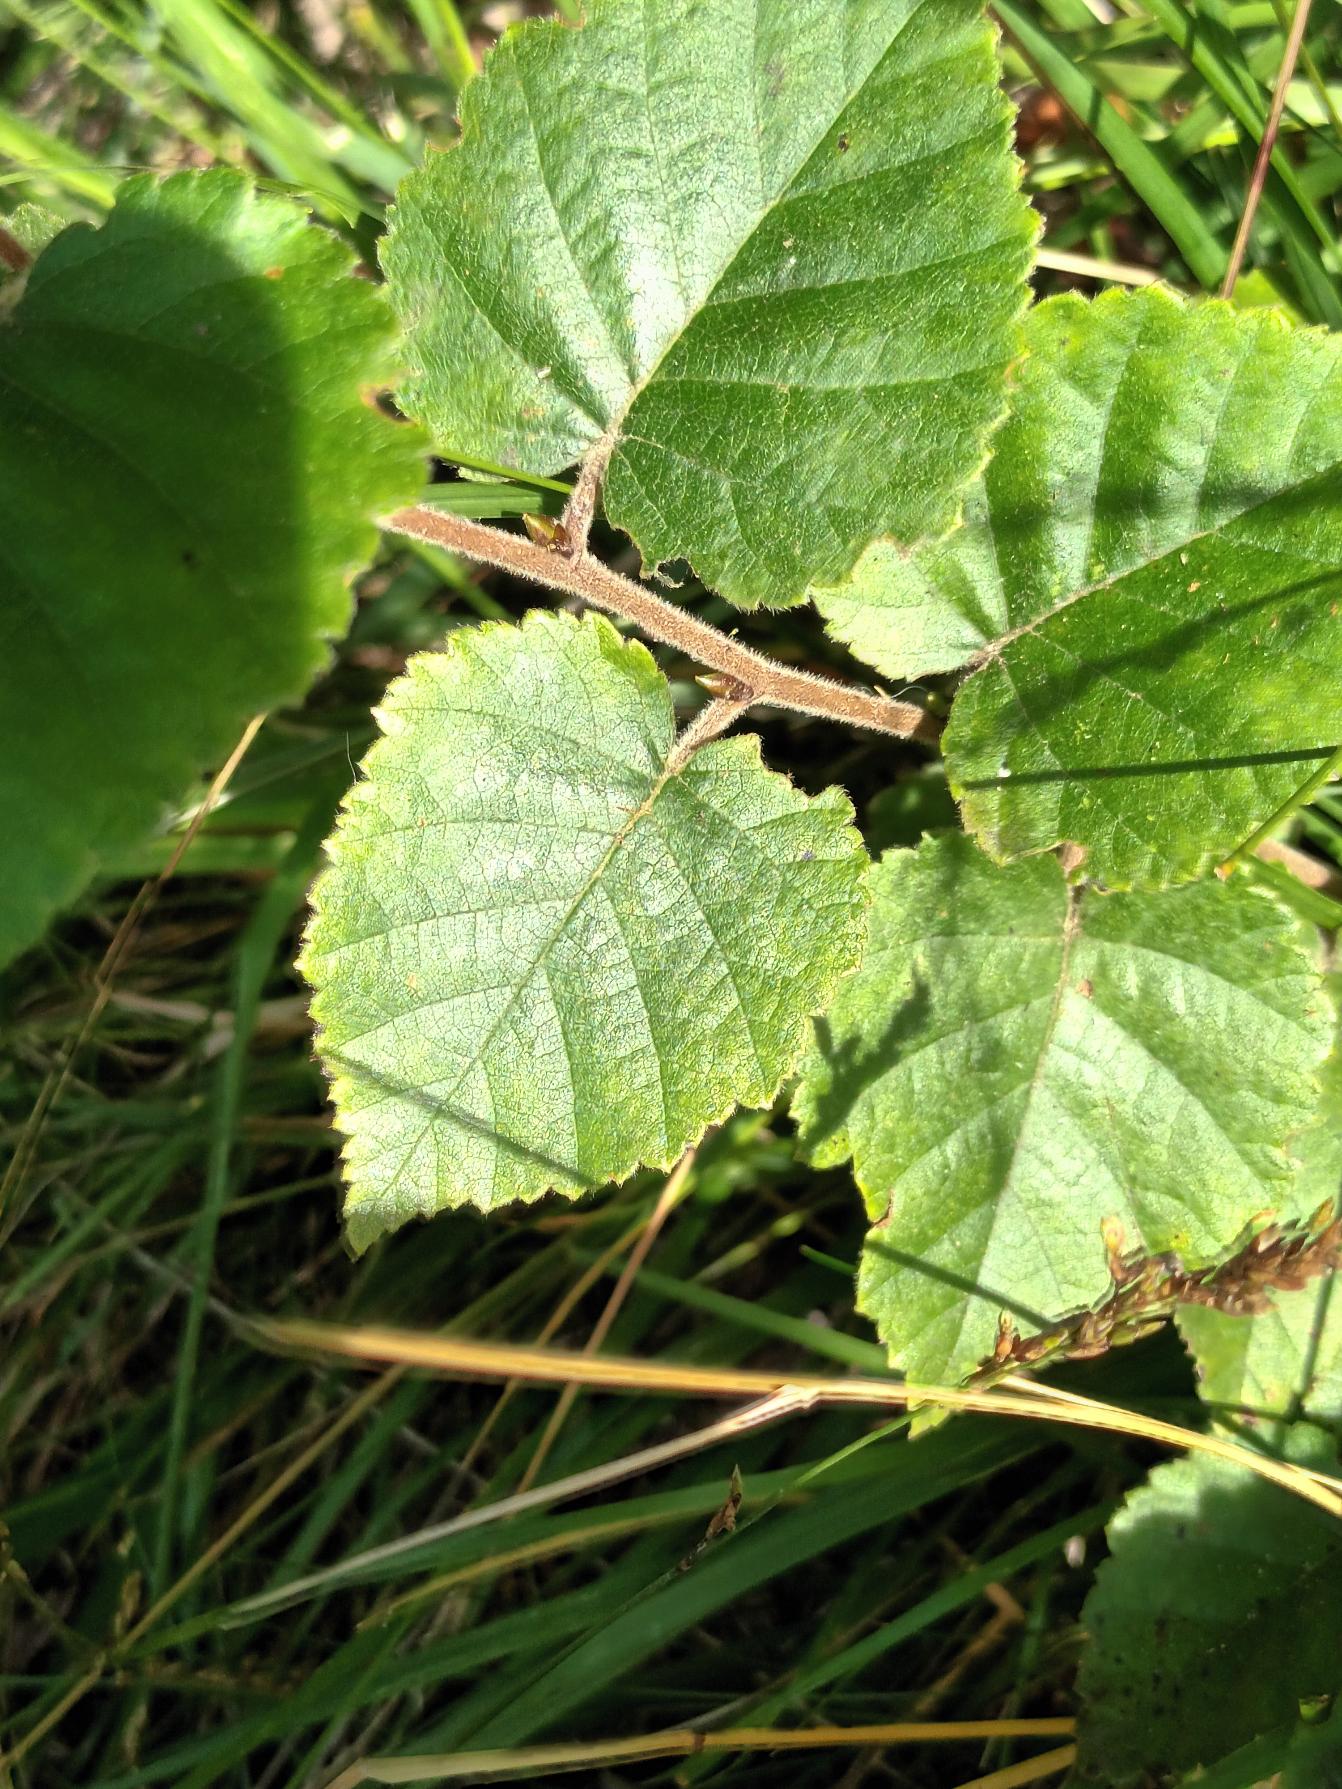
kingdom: Plantae
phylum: Tracheophyta
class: Magnoliopsida
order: Fagales
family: Betulaceae
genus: Betula
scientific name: Betula pubescens
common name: Dun-birk
